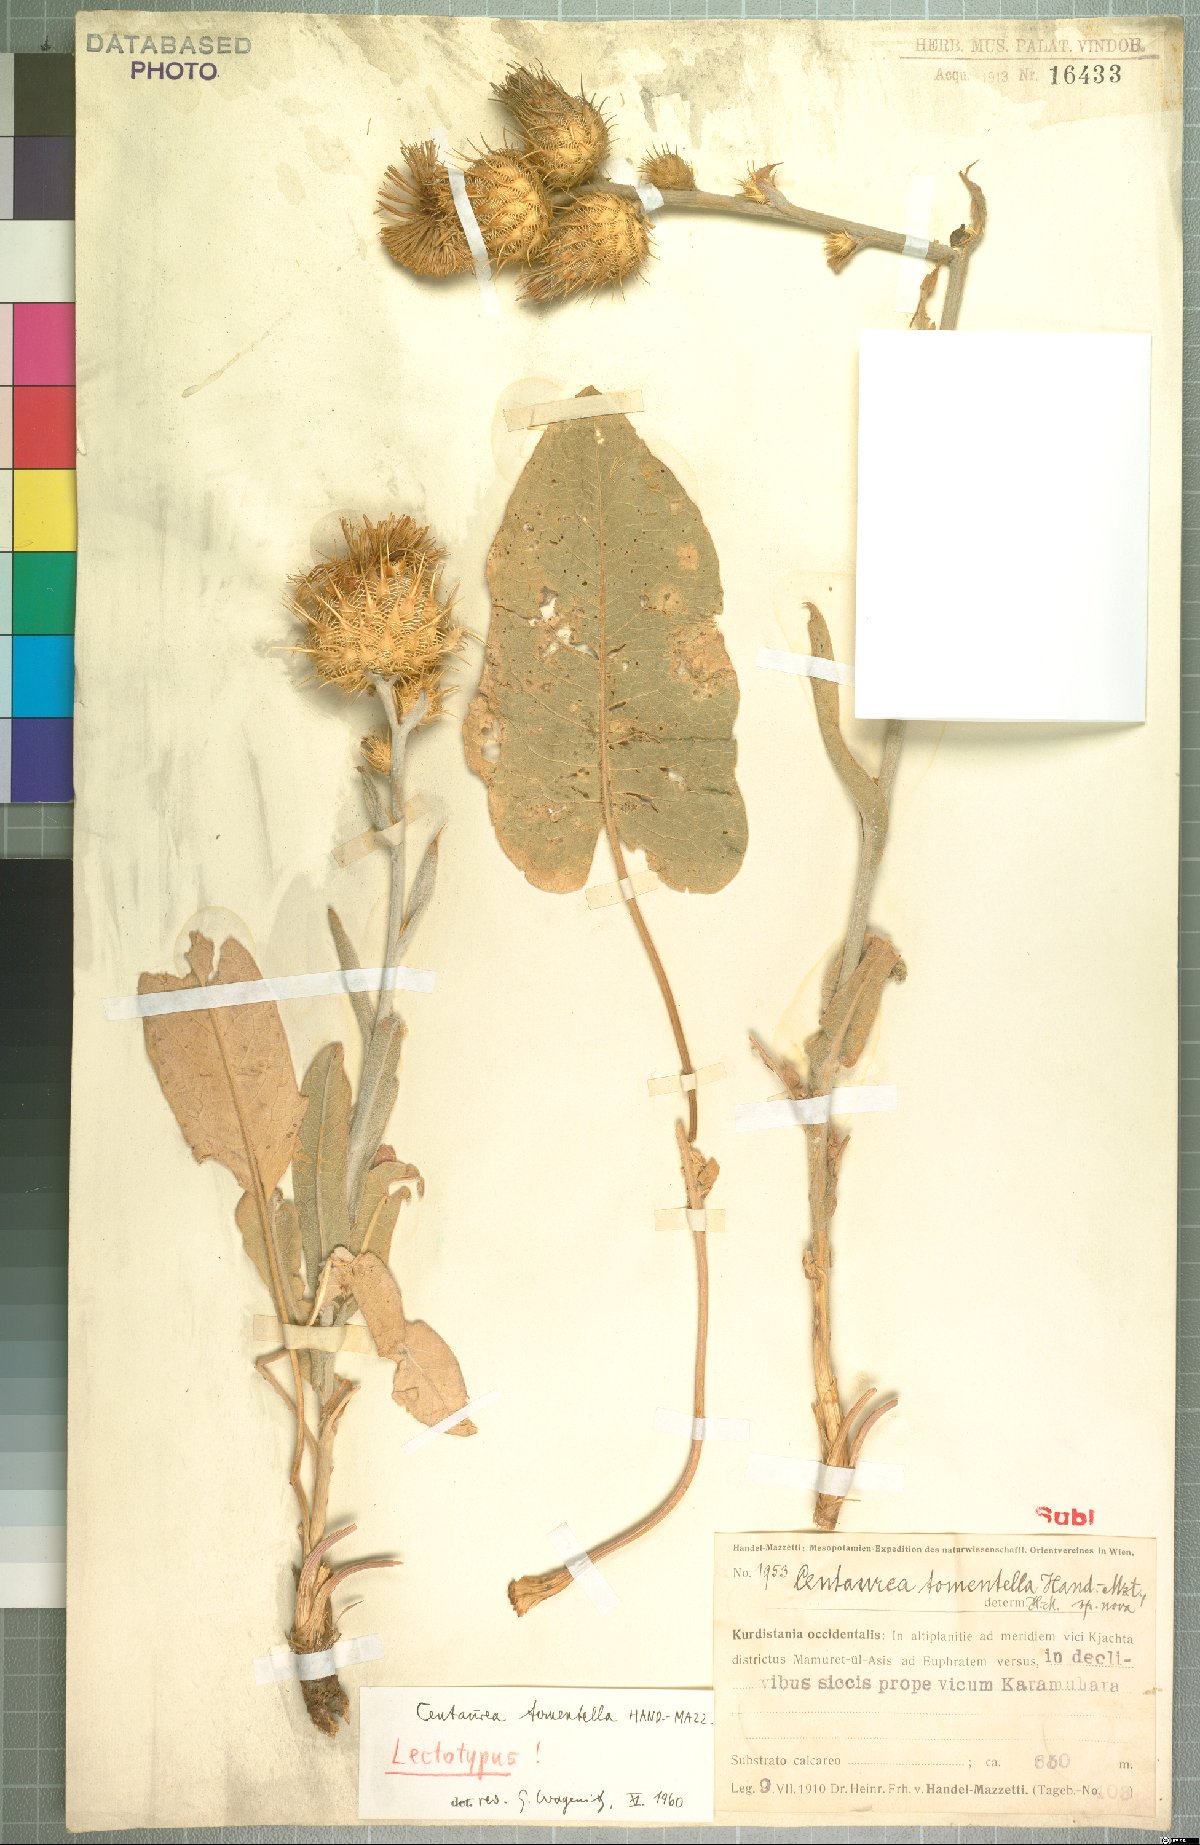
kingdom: Plantae
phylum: Tracheophyta
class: Magnoliopsida
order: Asterales
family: Asteraceae
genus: Centaurea
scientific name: Centaurea tomentella
